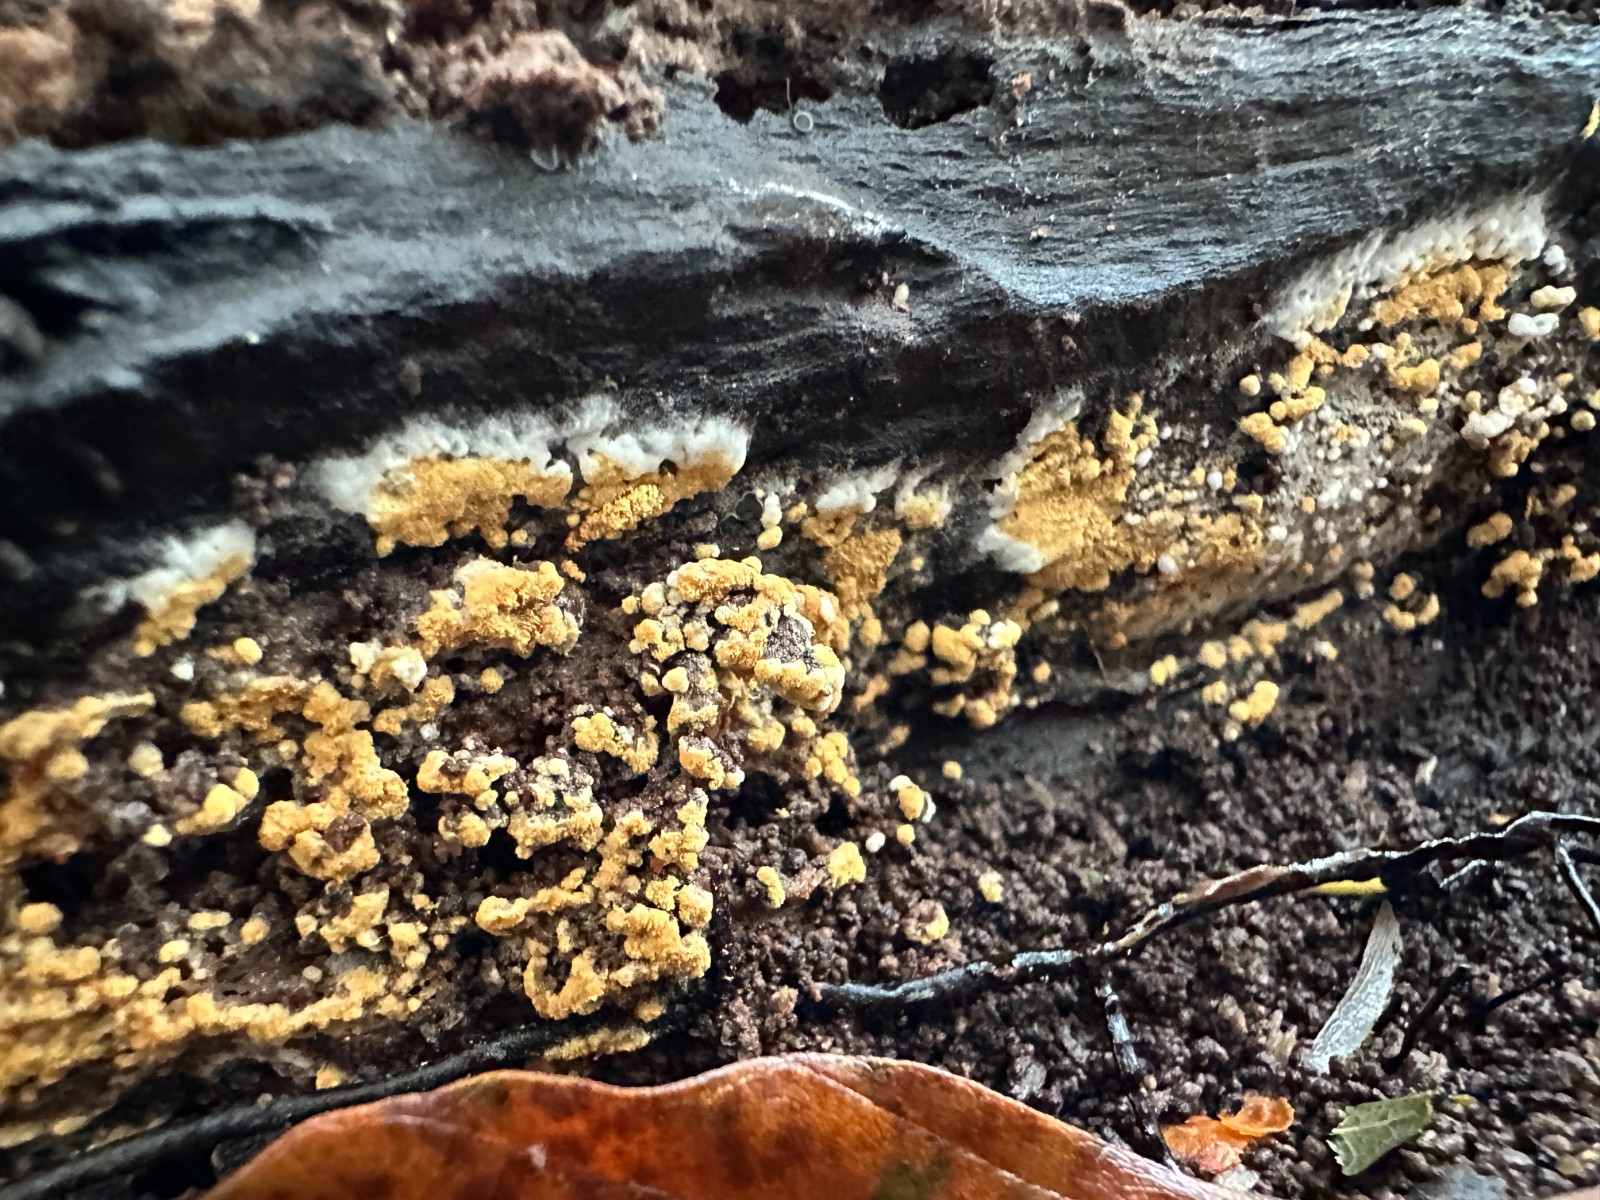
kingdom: Fungi
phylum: Basidiomycota
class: Agaricomycetes
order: Cantharellales
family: Botryobasidiaceae
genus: Botryobasidium
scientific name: Botryobasidium aureum
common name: gylden spindhinde
